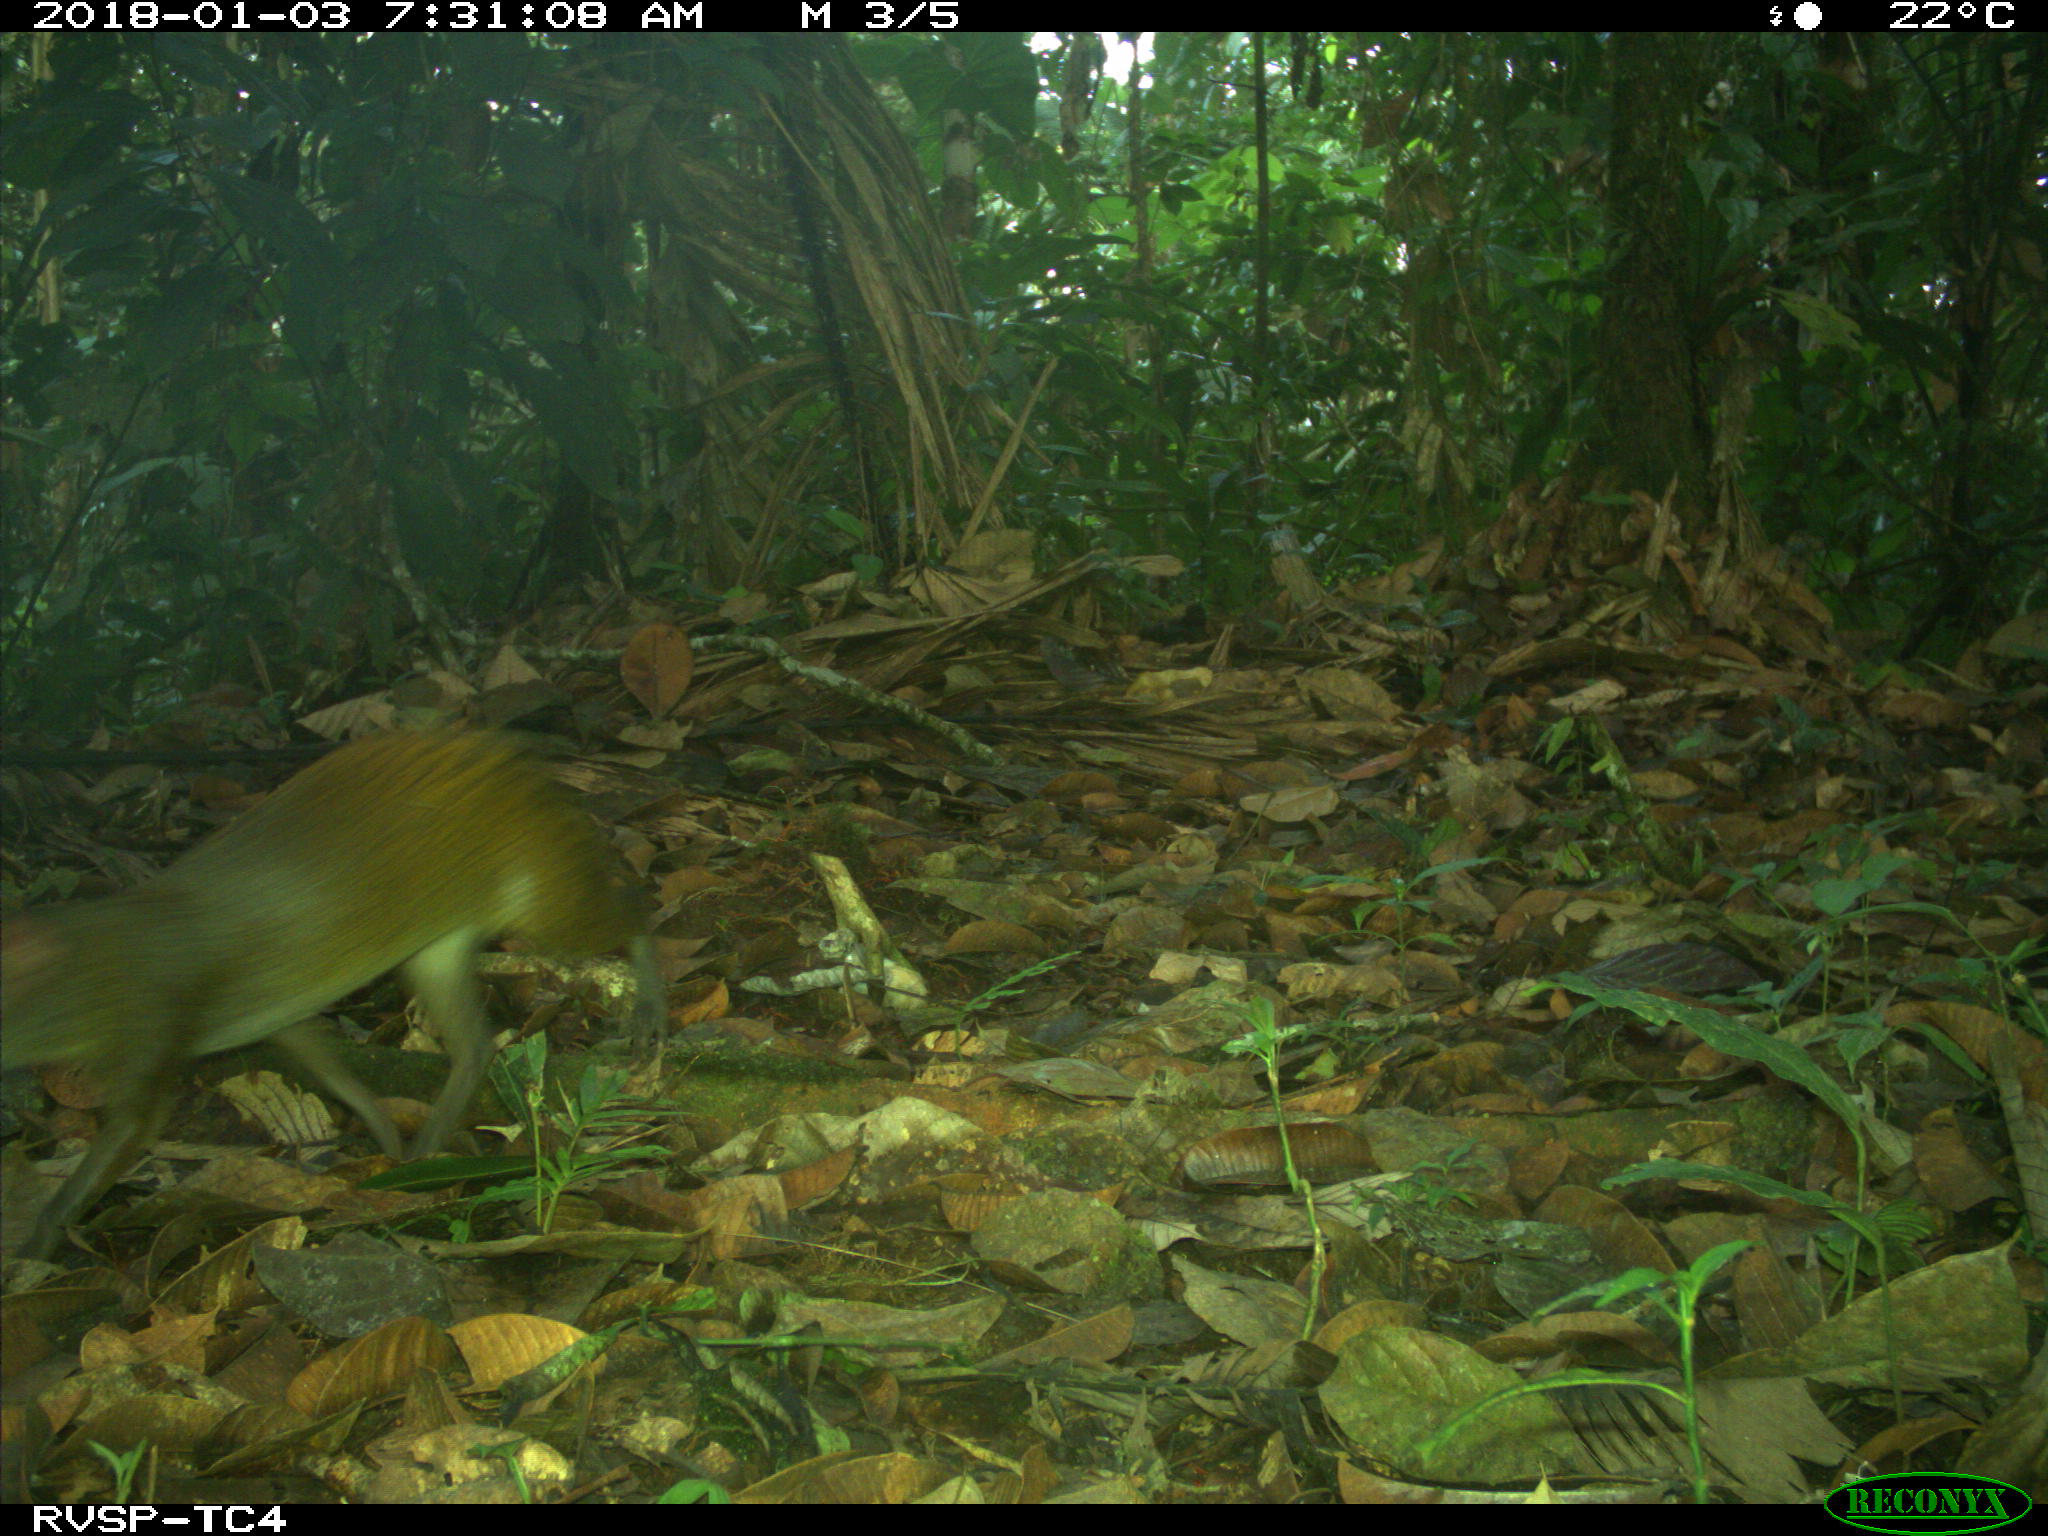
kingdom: Animalia
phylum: Chordata
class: Mammalia
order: Rodentia
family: Dasyproctidae
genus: Dasyprocta
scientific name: Dasyprocta punctata
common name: Central american agouti
